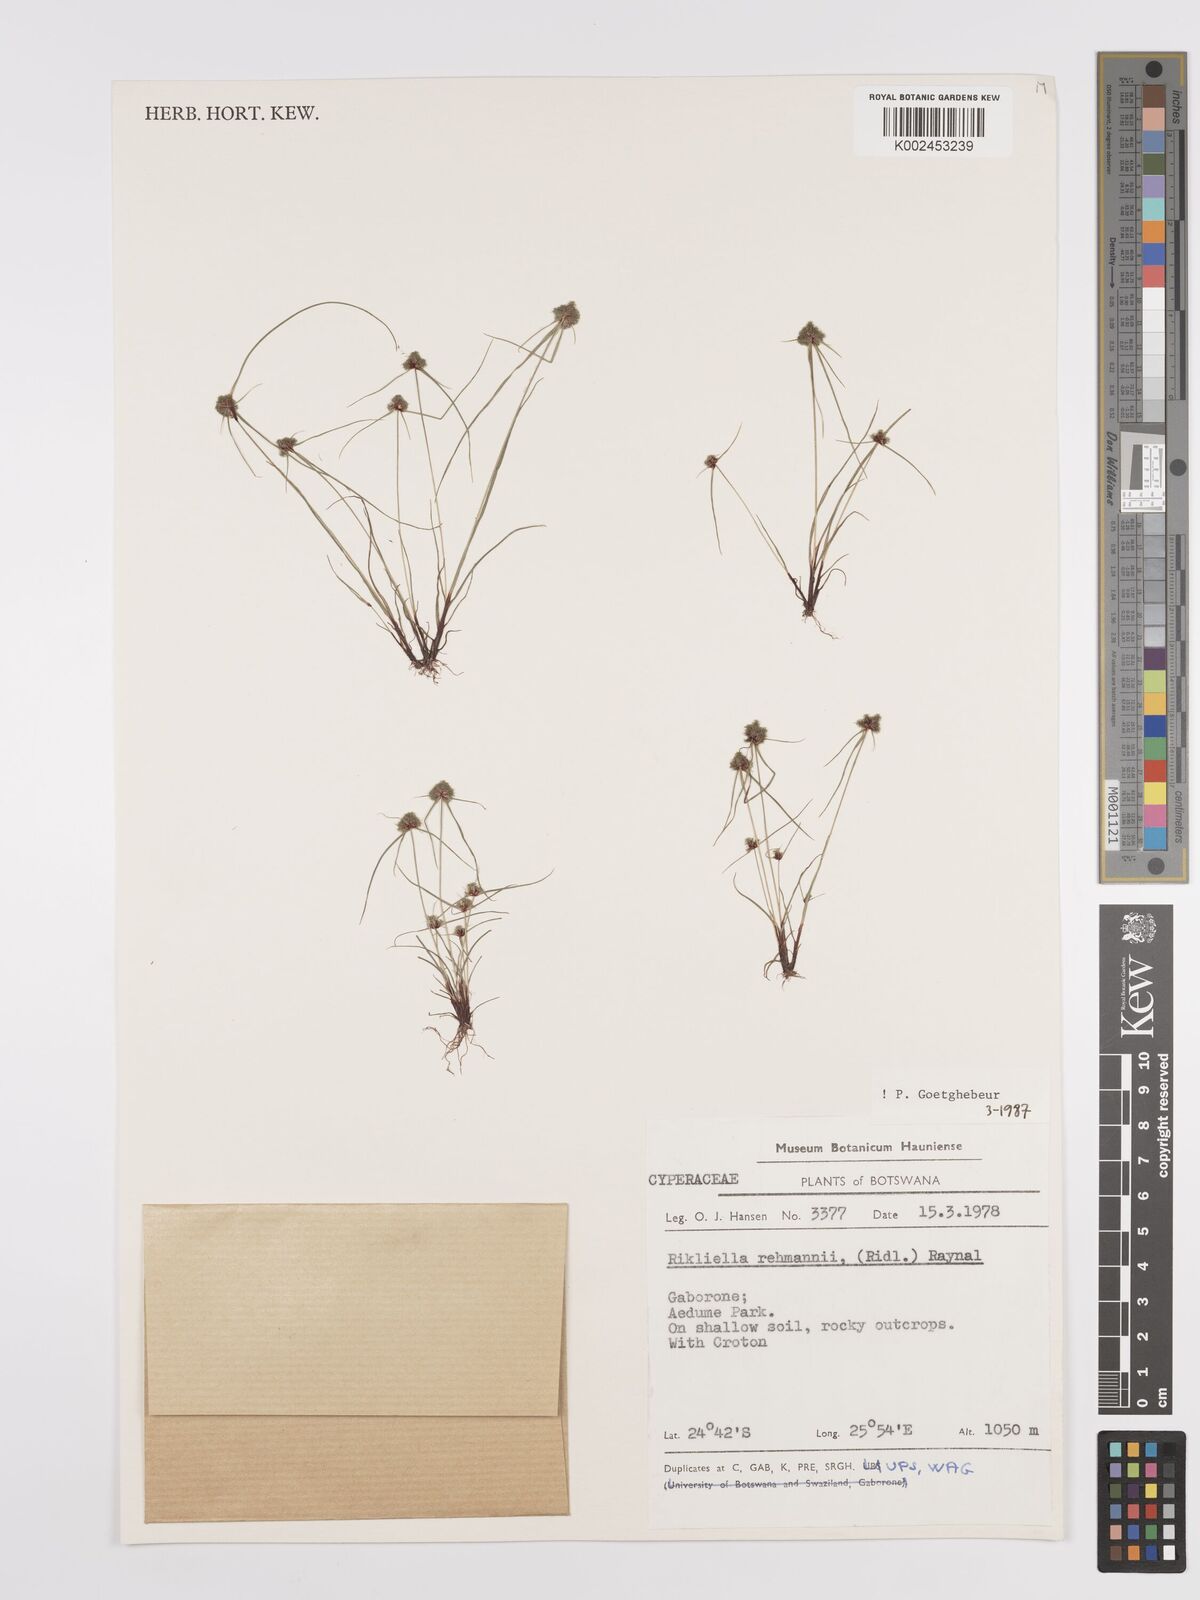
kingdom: Plantae
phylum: Tracheophyta
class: Liliopsida
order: Poales
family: Cyperaceae
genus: Cyperus
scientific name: Cyperus sanguinolentus
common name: Purpleglume flatsedge
